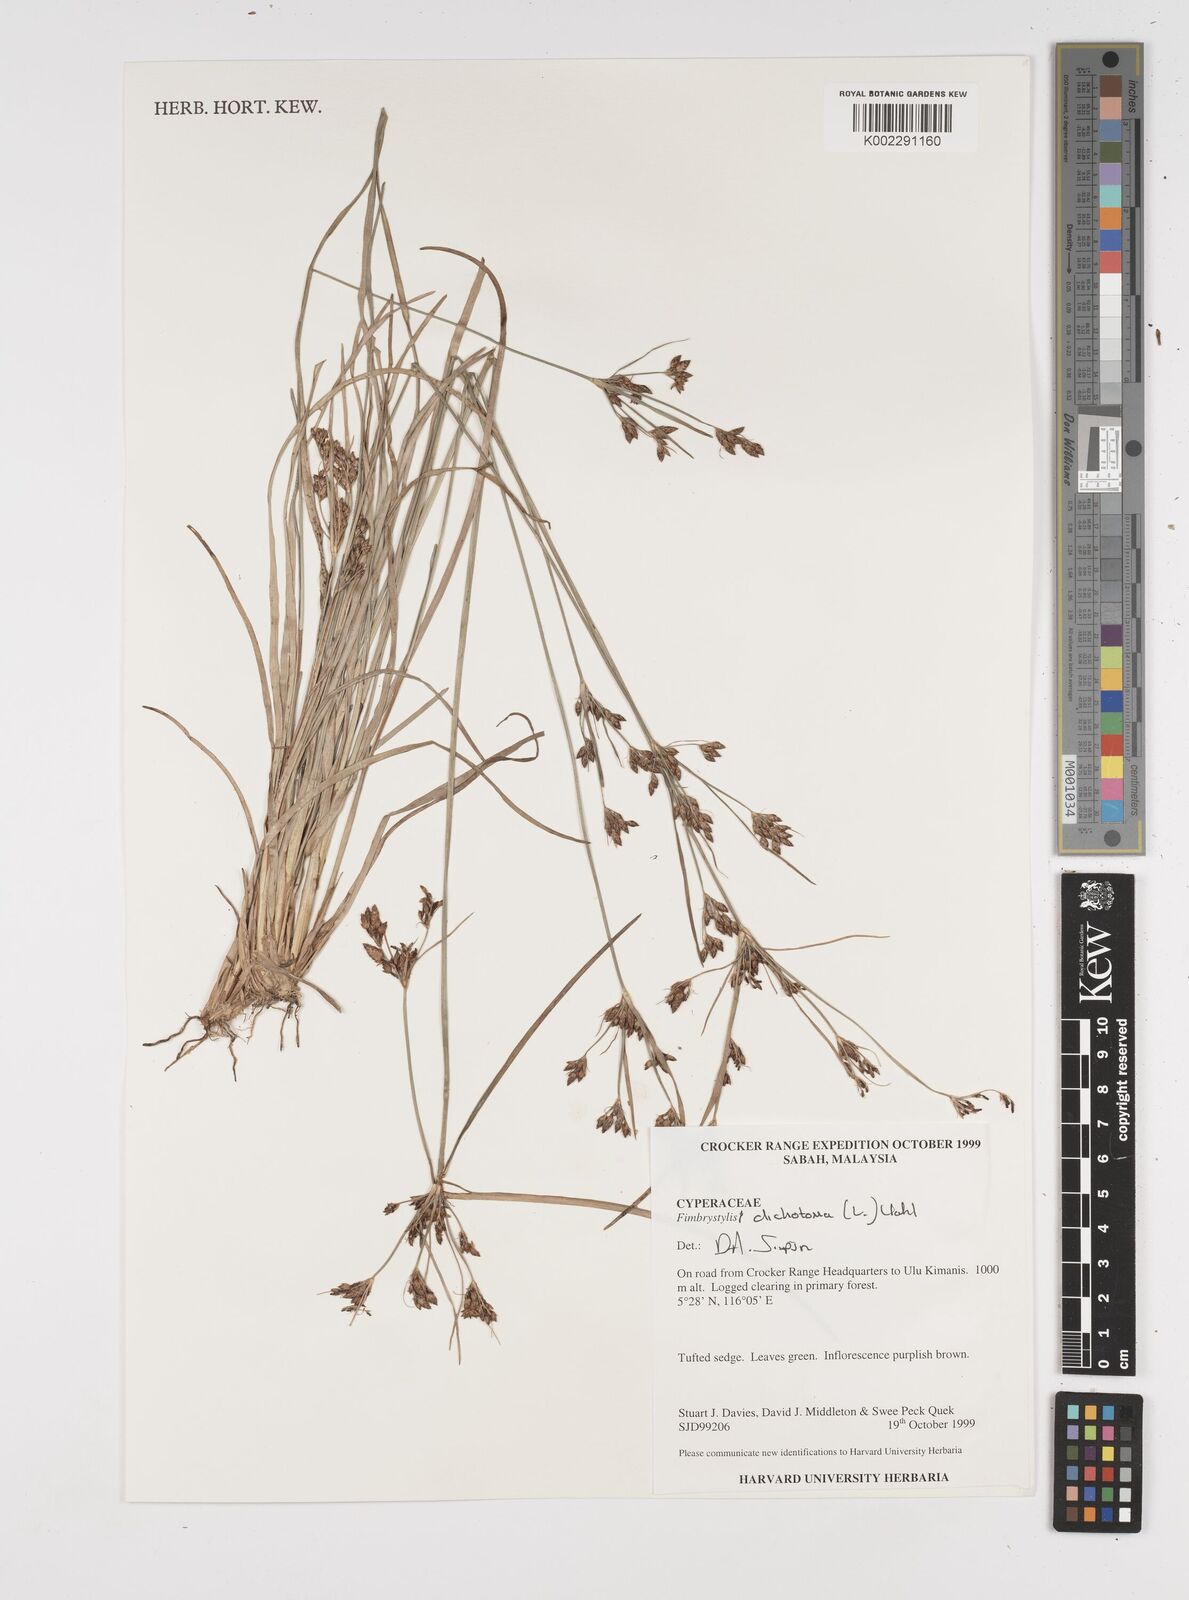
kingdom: Plantae
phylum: Tracheophyta
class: Liliopsida
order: Poales
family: Cyperaceae
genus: Fimbristylis
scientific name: Fimbristylis dichotoma
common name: Forked fimbry
